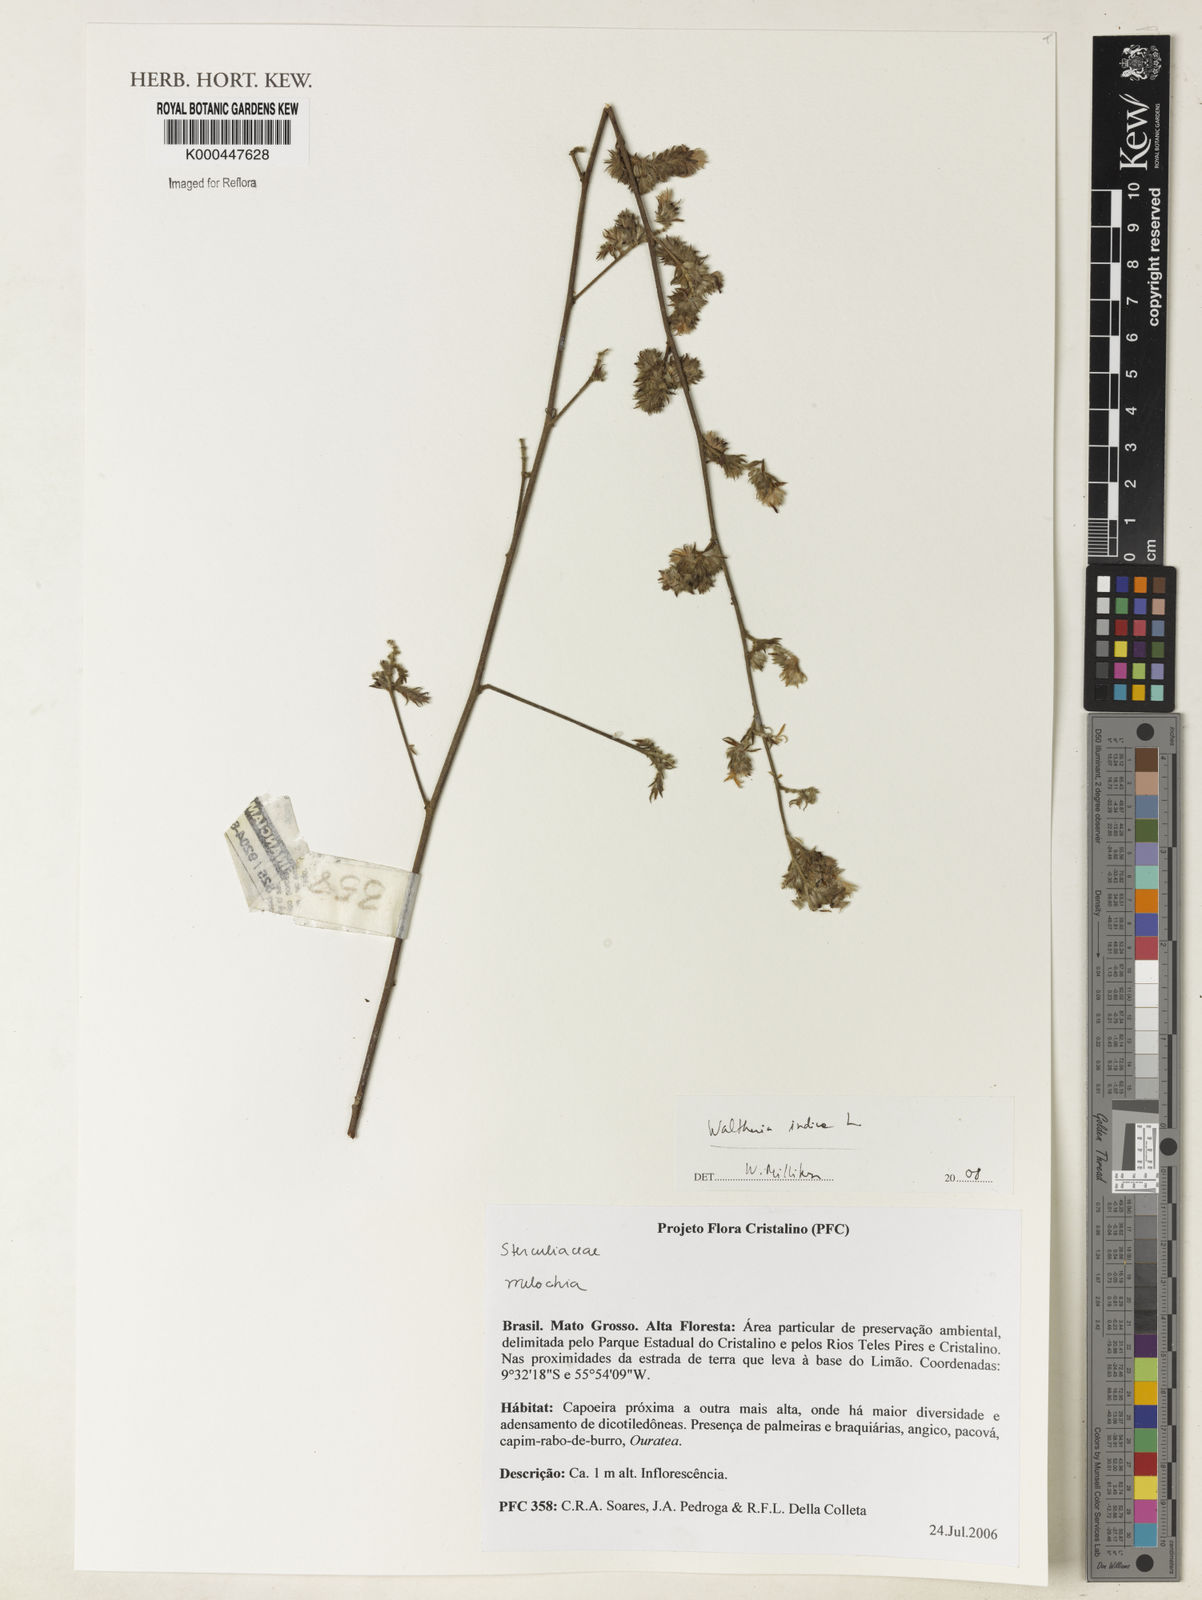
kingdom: Plantae
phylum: Tracheophyta
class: Magnoliopsida
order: Malvales
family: Malvaceae
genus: Waltheria
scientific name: Waltheria indica
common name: Leather-coat
